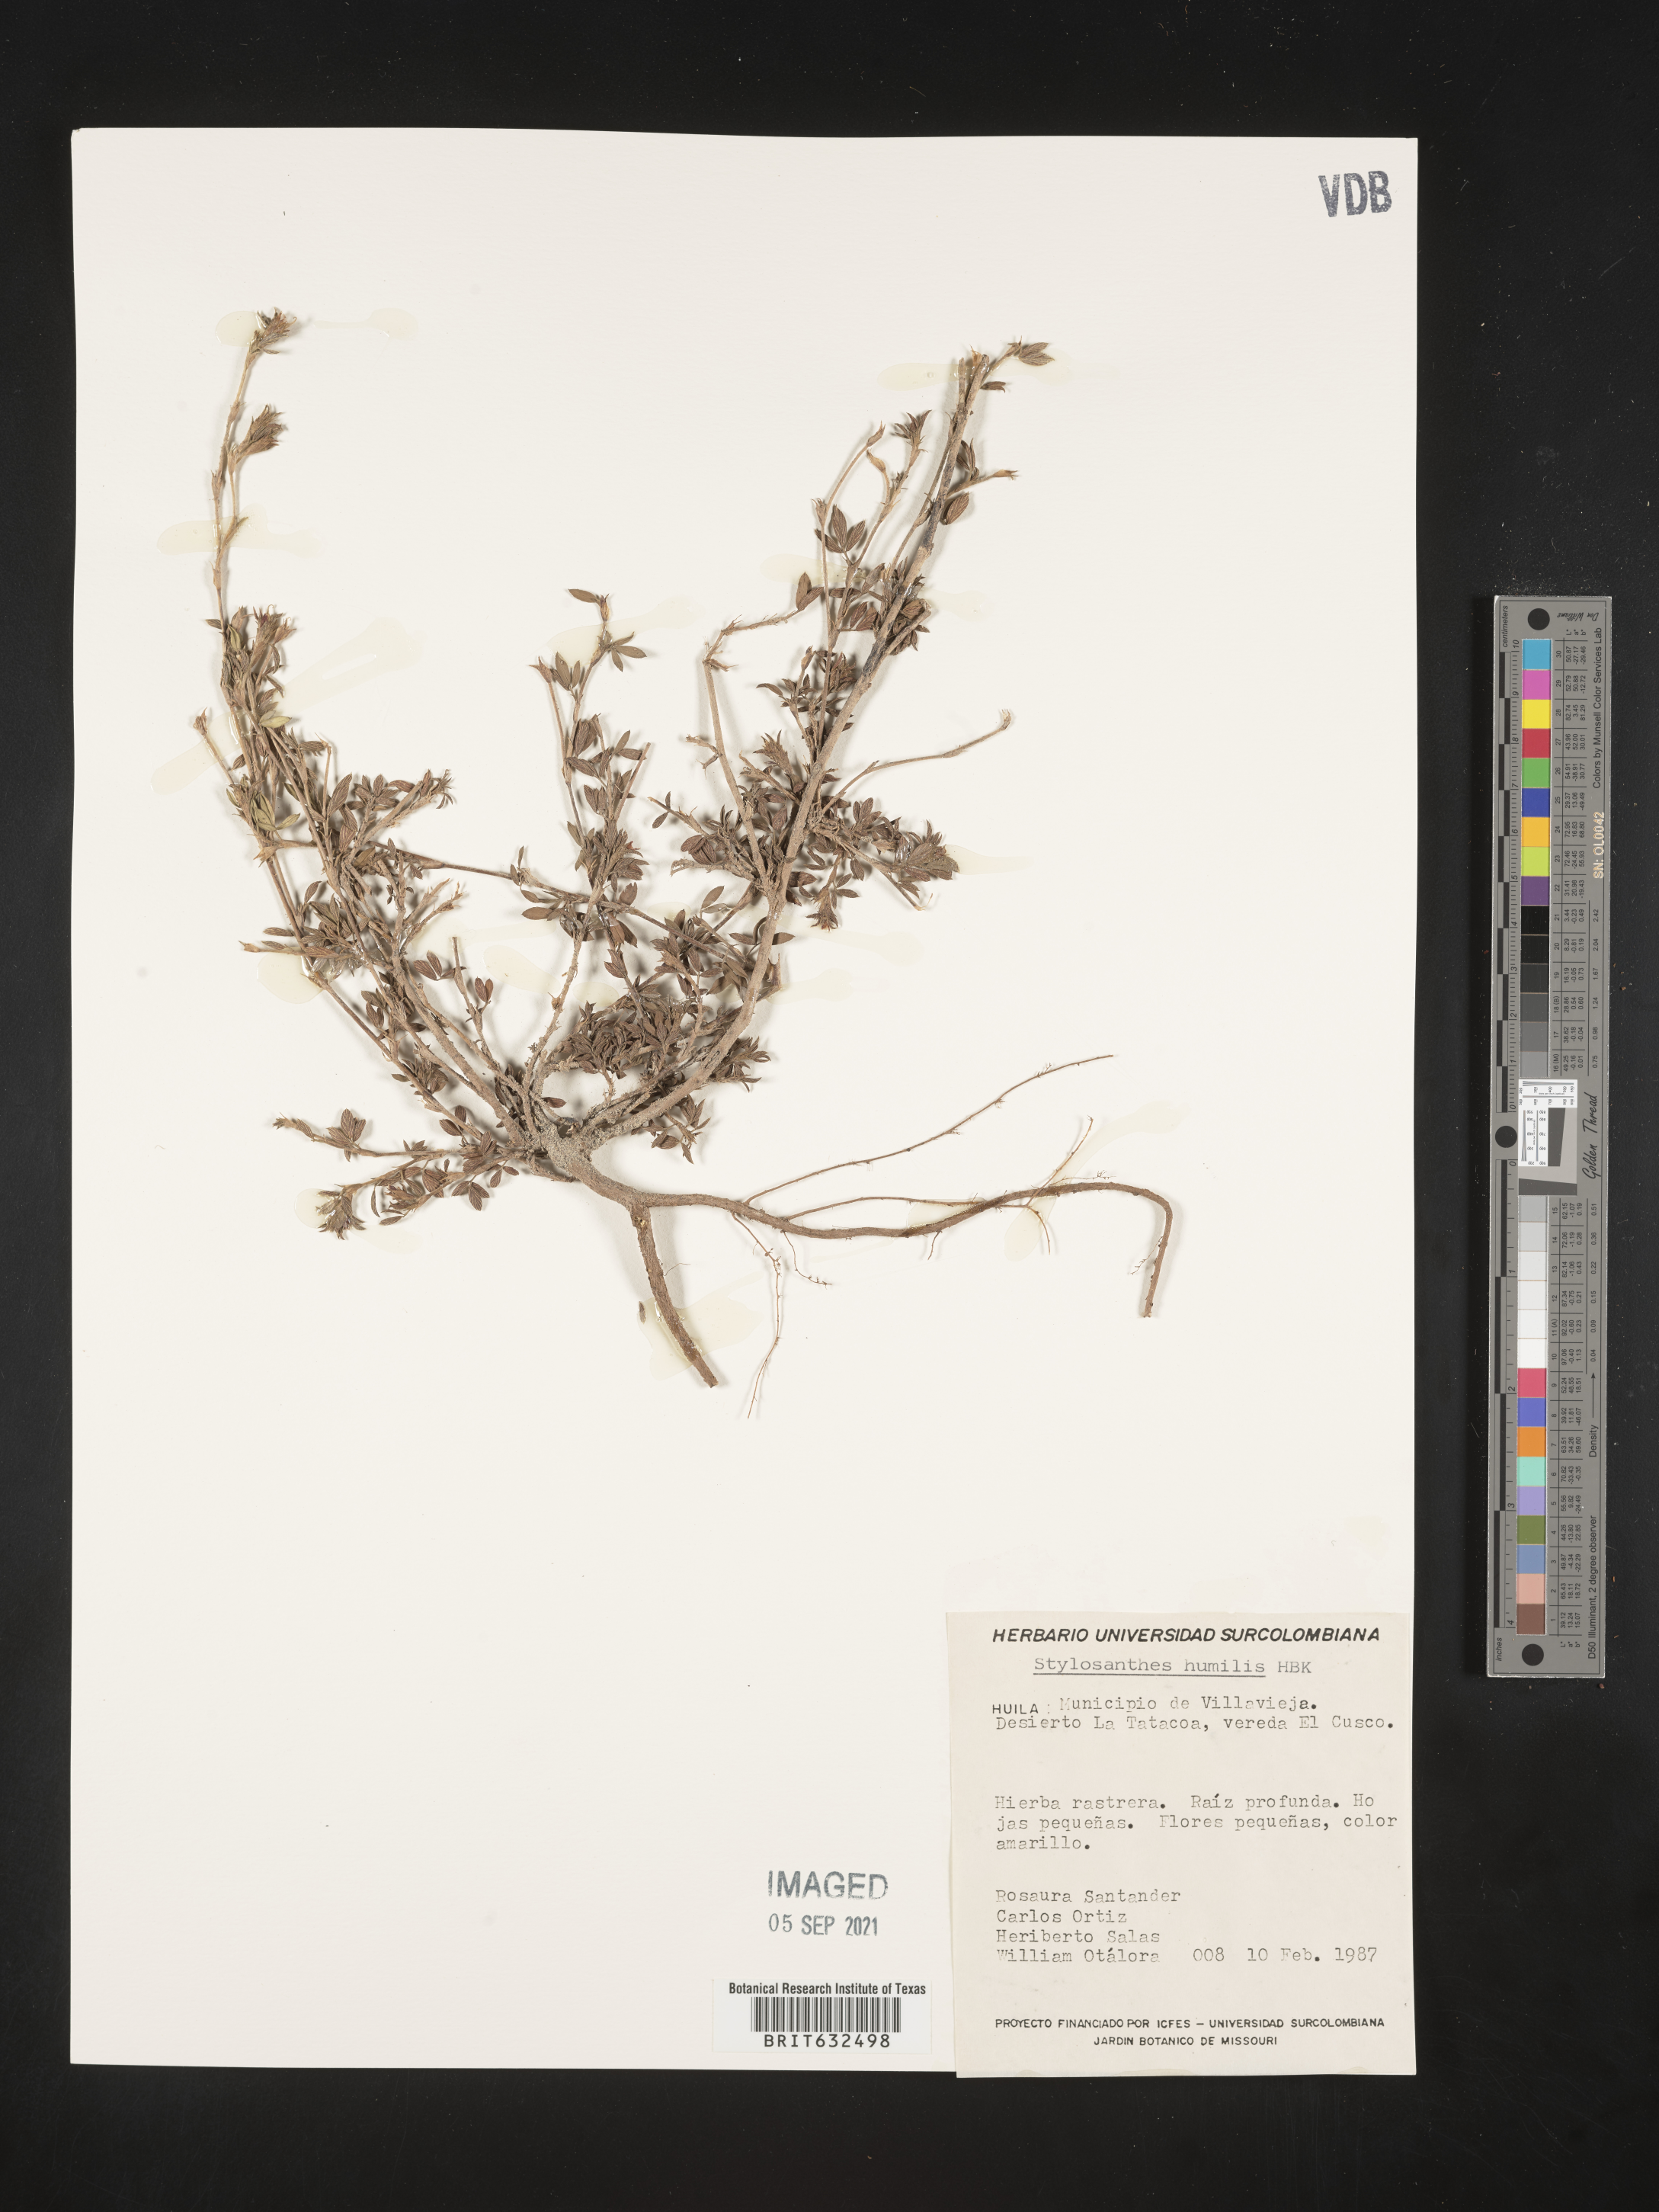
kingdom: Plantae
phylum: Tracheophyta
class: Magnoliopsida
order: Fabales
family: Fabaceae
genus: Stylosanthes
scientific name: Stylosanthes
